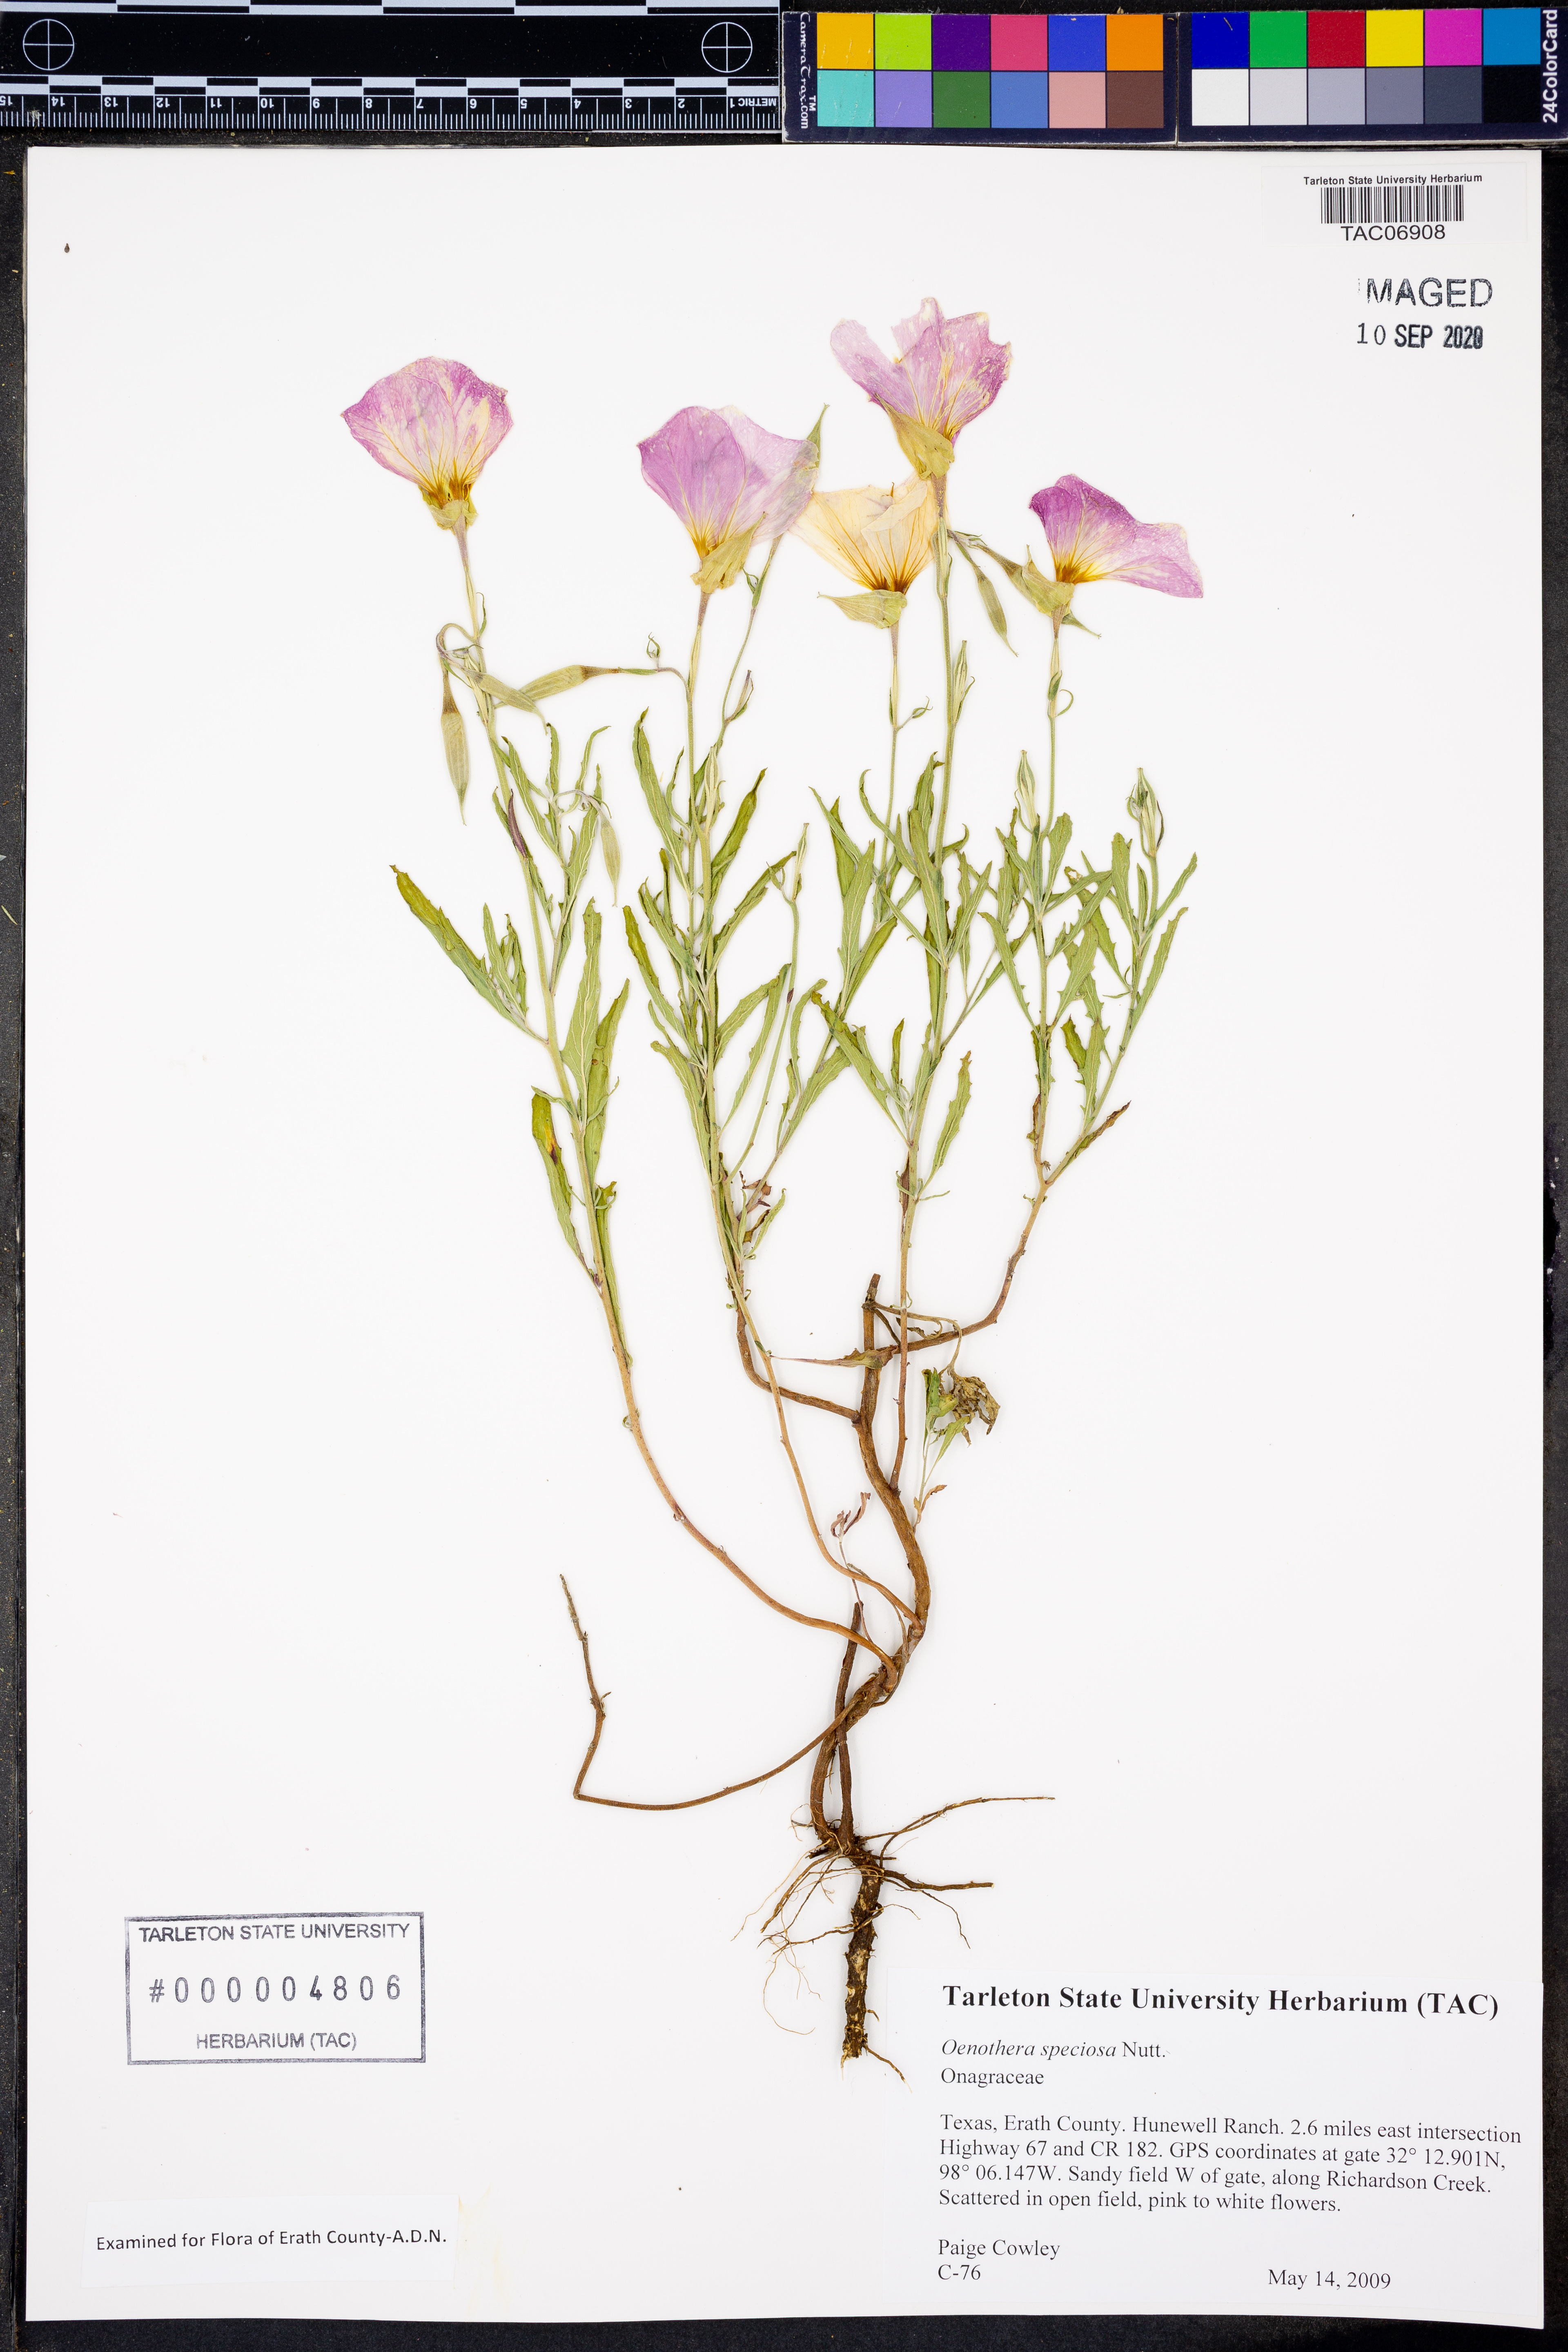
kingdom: Plantae
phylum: Tracheophyta
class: Magnoliopsida
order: Myrtales
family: Onagraceae
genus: Oenothera
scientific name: Oenothera speciosa
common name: White evening-primrose
